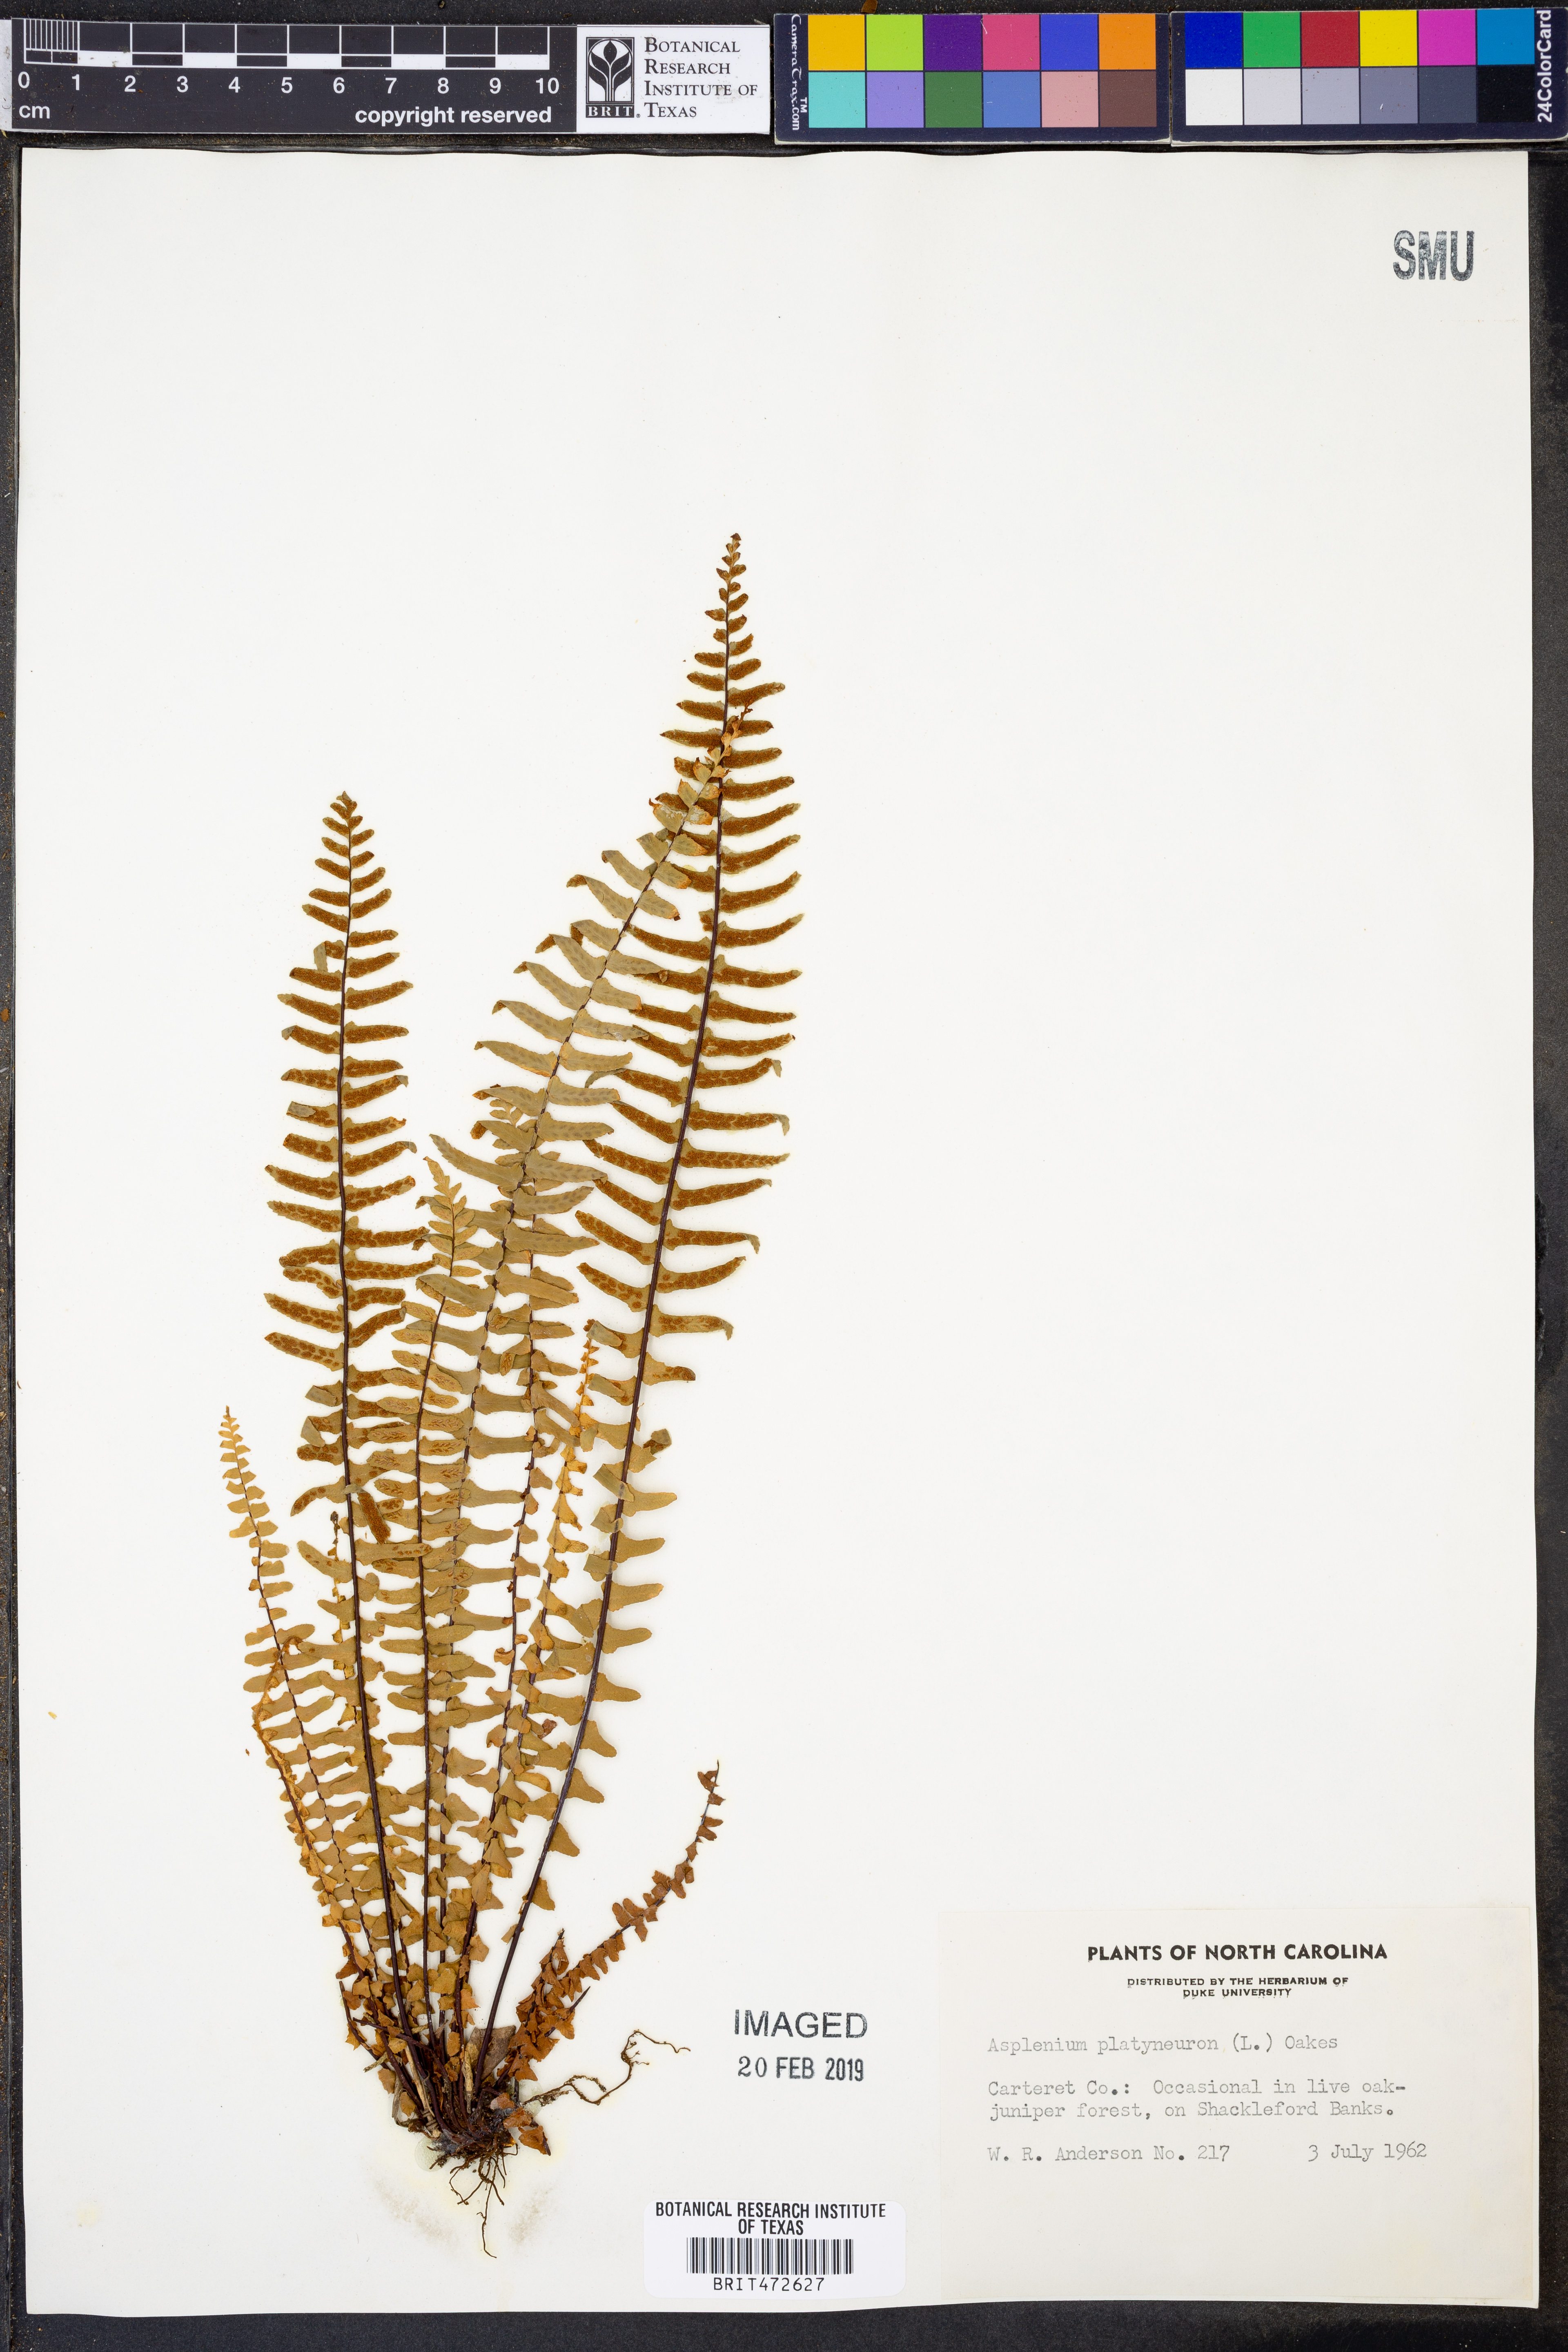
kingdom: Plantae
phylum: Tracheophyta
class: Polypodiopsida
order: Polypodiales
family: Aspleniaceae
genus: Asplenium
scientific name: Asplenium platyneuron
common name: Ebony spleenwort
